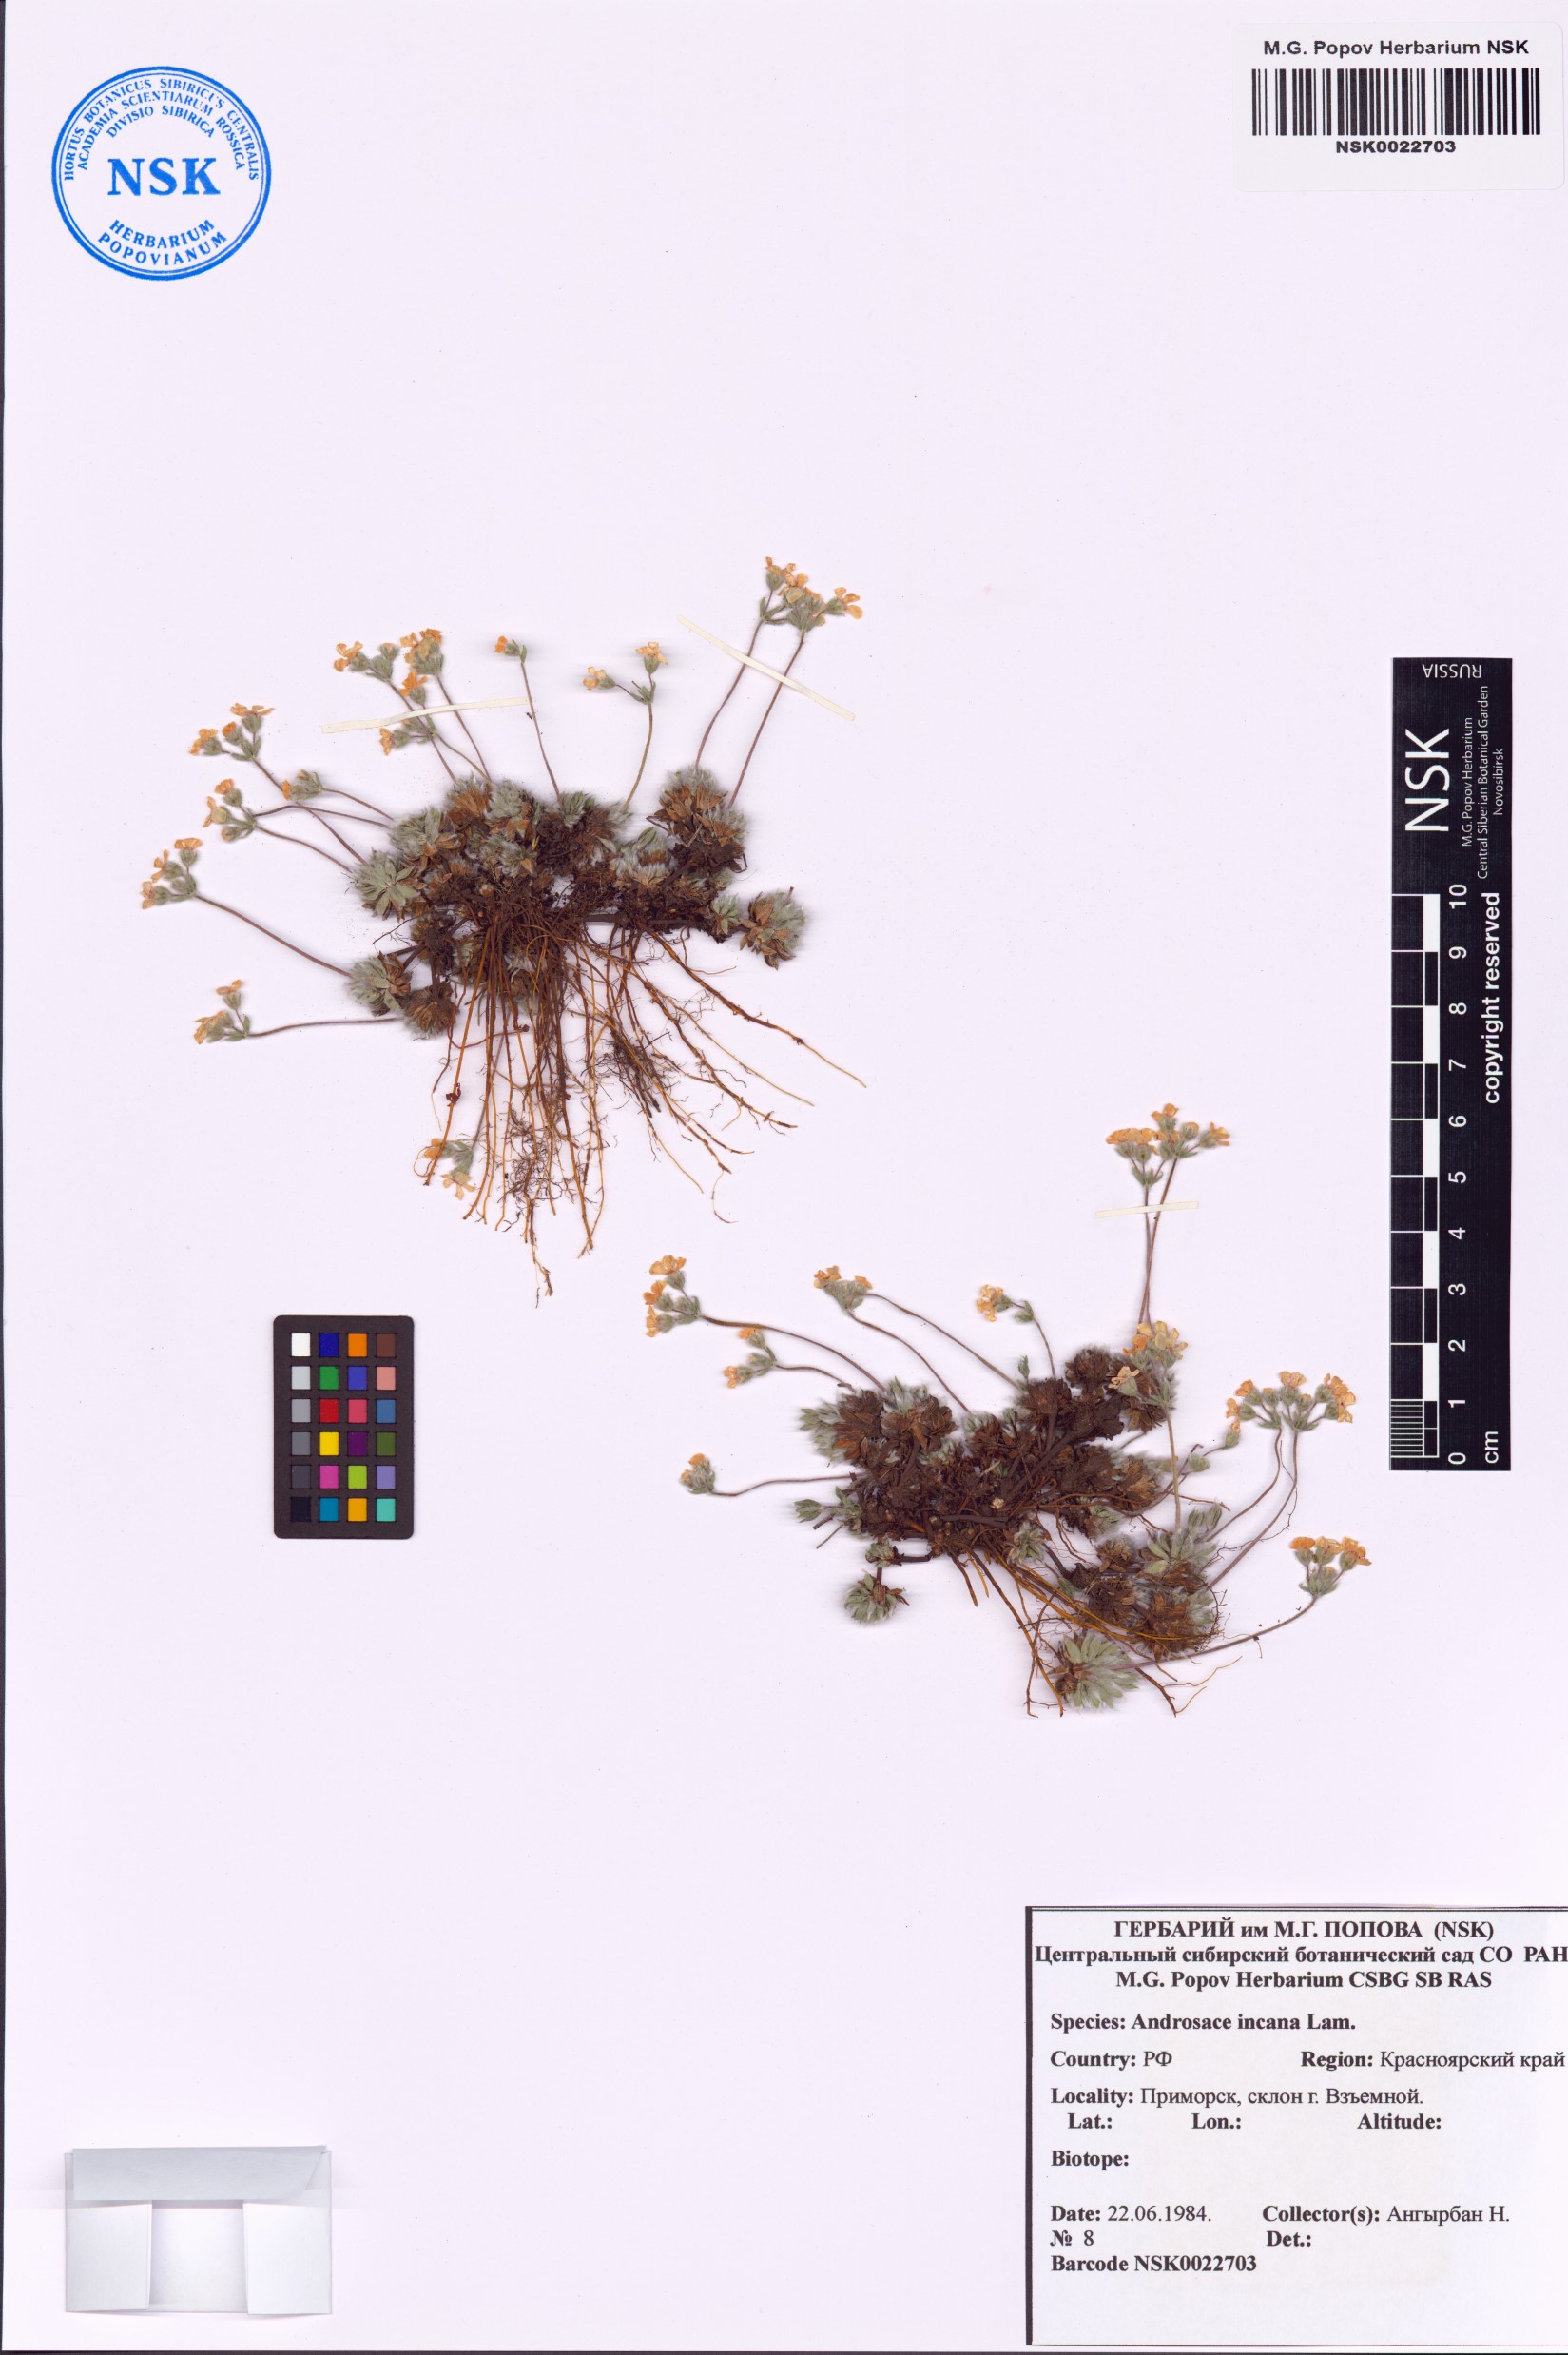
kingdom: Plantae
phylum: Tracheophyta
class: Magnoliopsida
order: Ericales
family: Primulaceae
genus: Androsace
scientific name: Androsace incana
